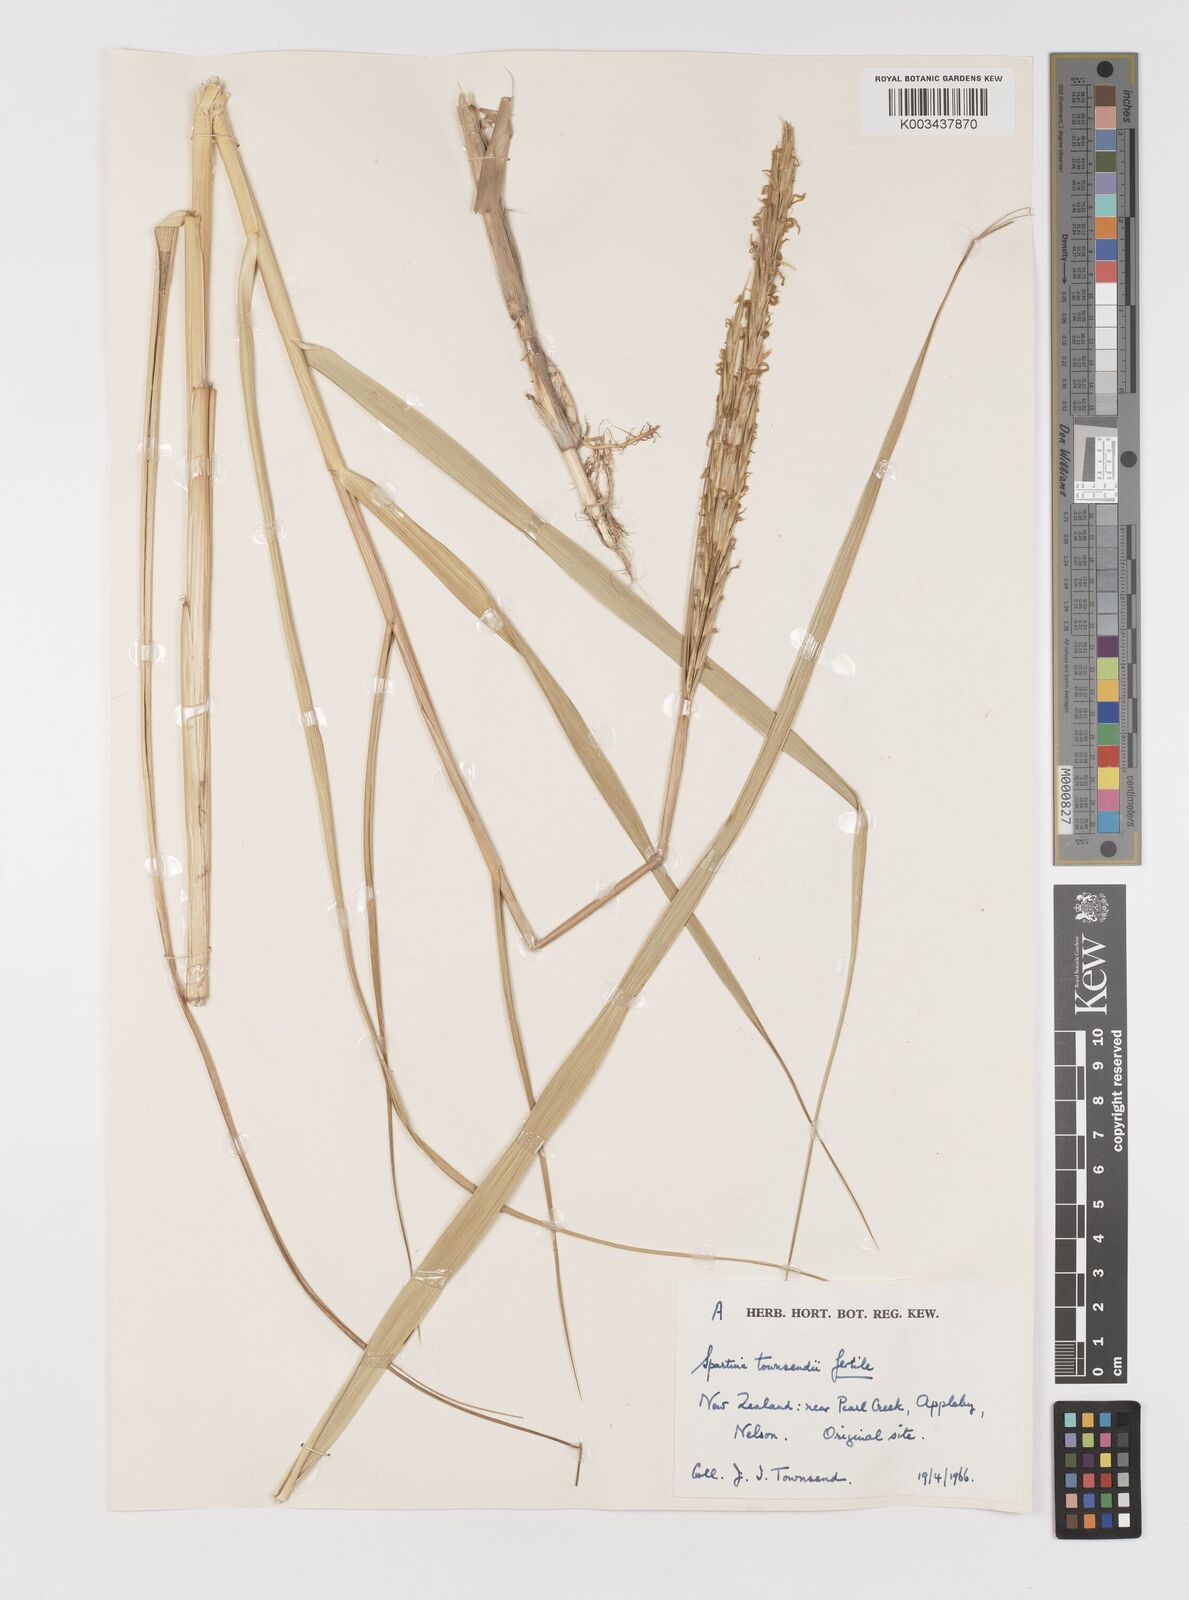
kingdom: Plantae
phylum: Tracheophyta
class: Liliopsida
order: Poales
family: Poaceae
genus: Sporobolus
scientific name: Sporobolus anglicus
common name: English cordgrass
